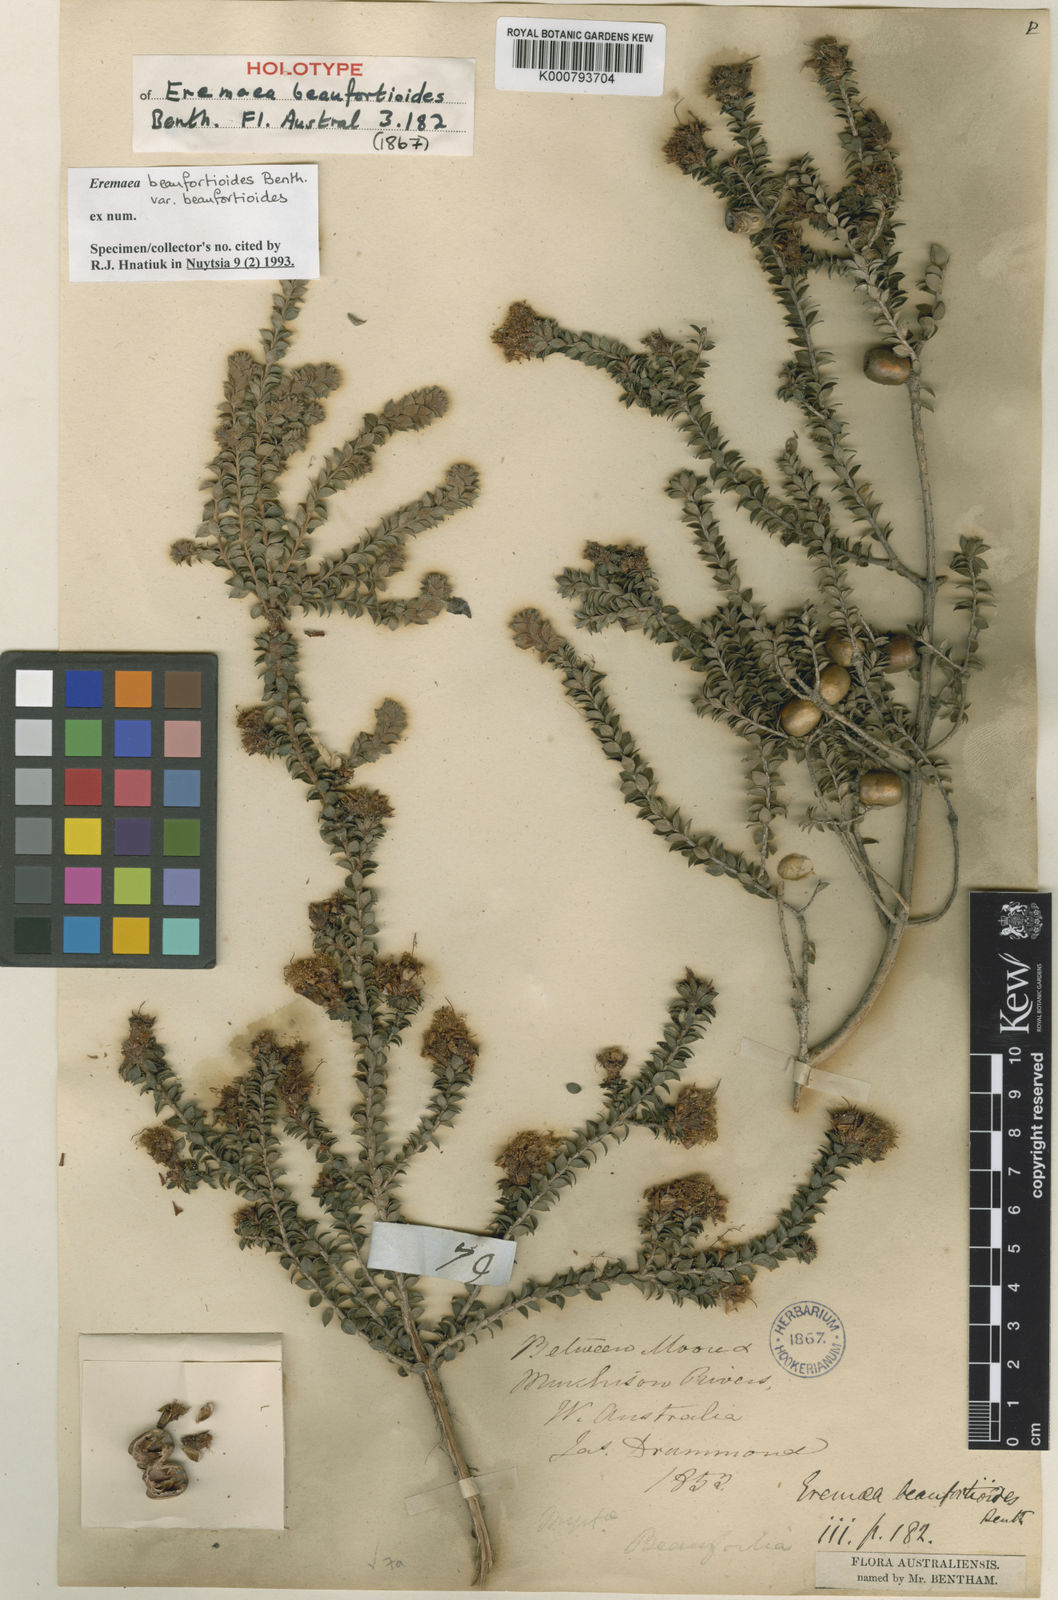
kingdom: Plantae
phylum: Tracheophyta
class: Magnoliopsida
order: Myrtales
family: Myrtaceae
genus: Melaleuca
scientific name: Melaleuca beaufortioides
